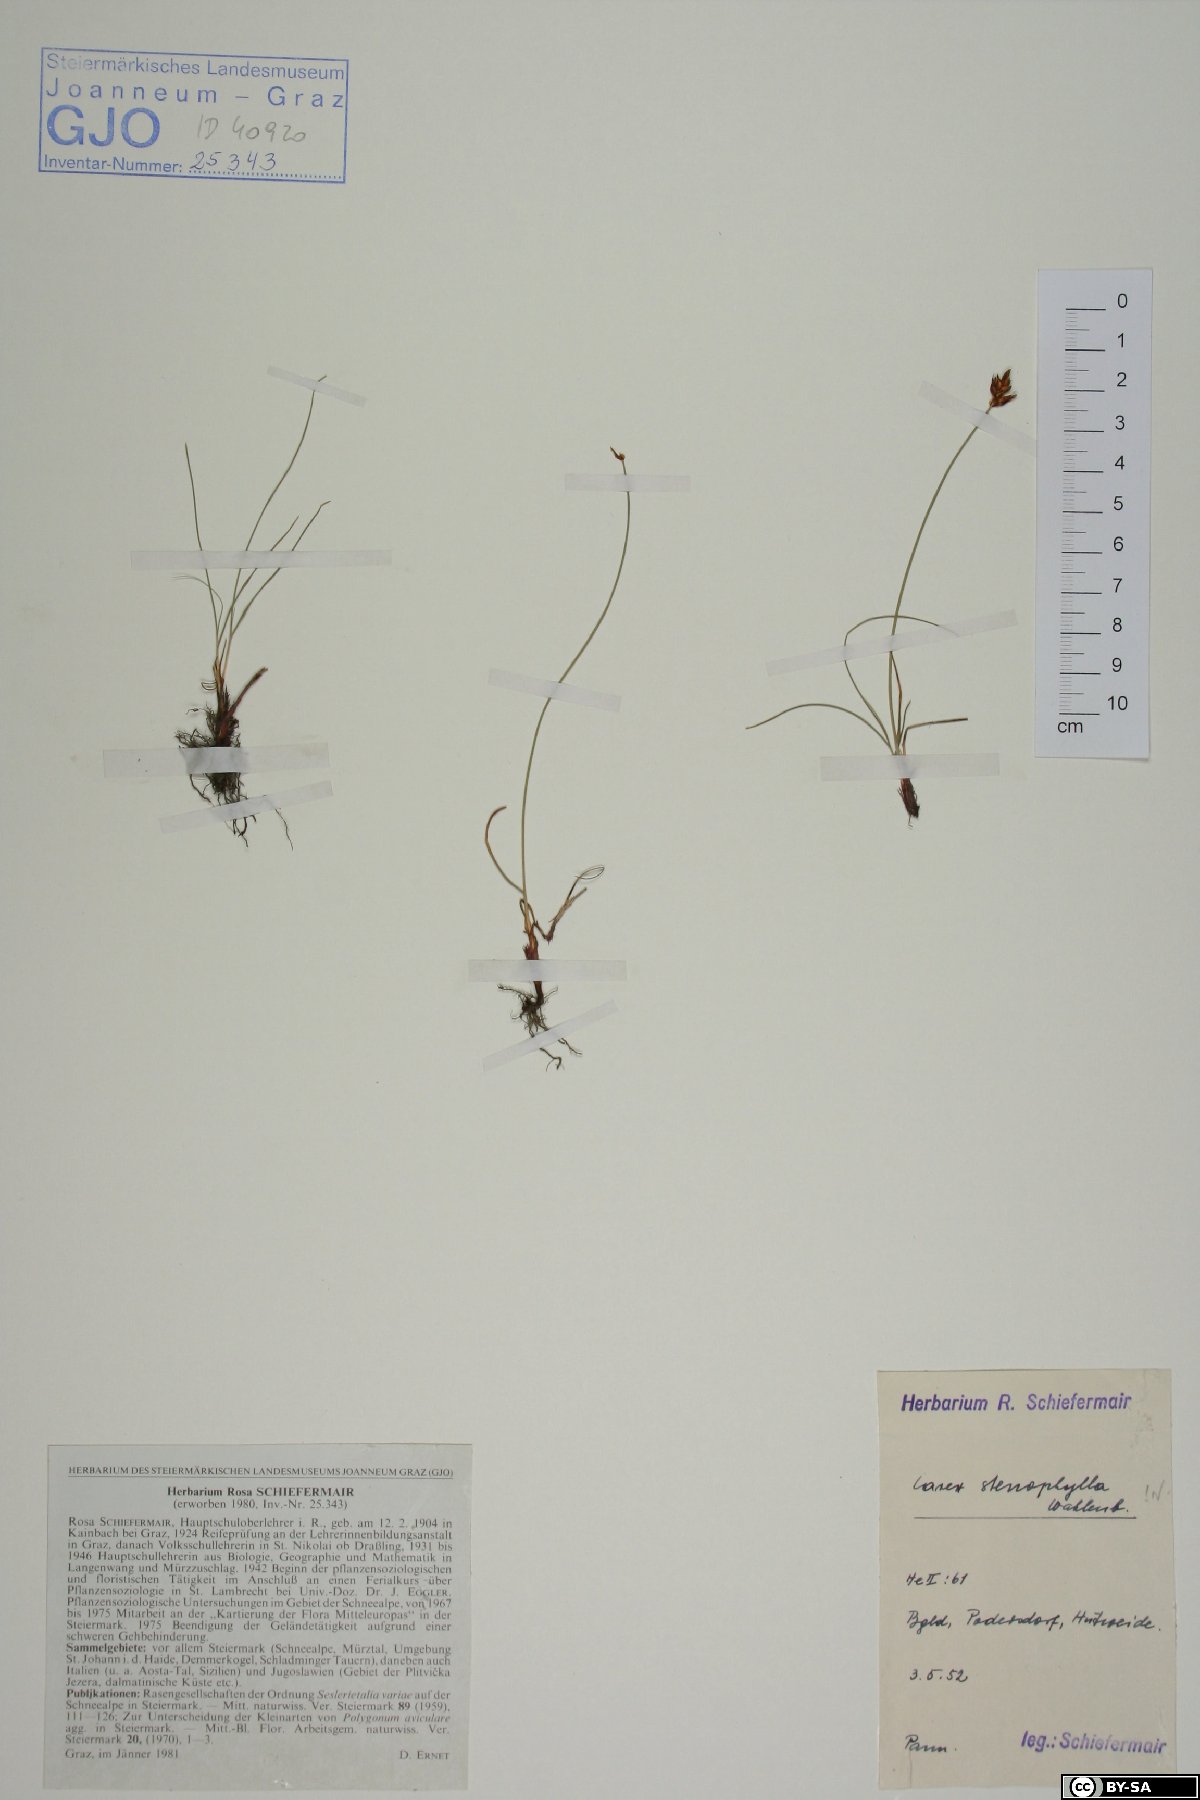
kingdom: Plantae
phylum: Tracheophyta
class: Liliopsida
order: Poales
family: Cyperaceae
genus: Carex
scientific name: Carex stenophylla
